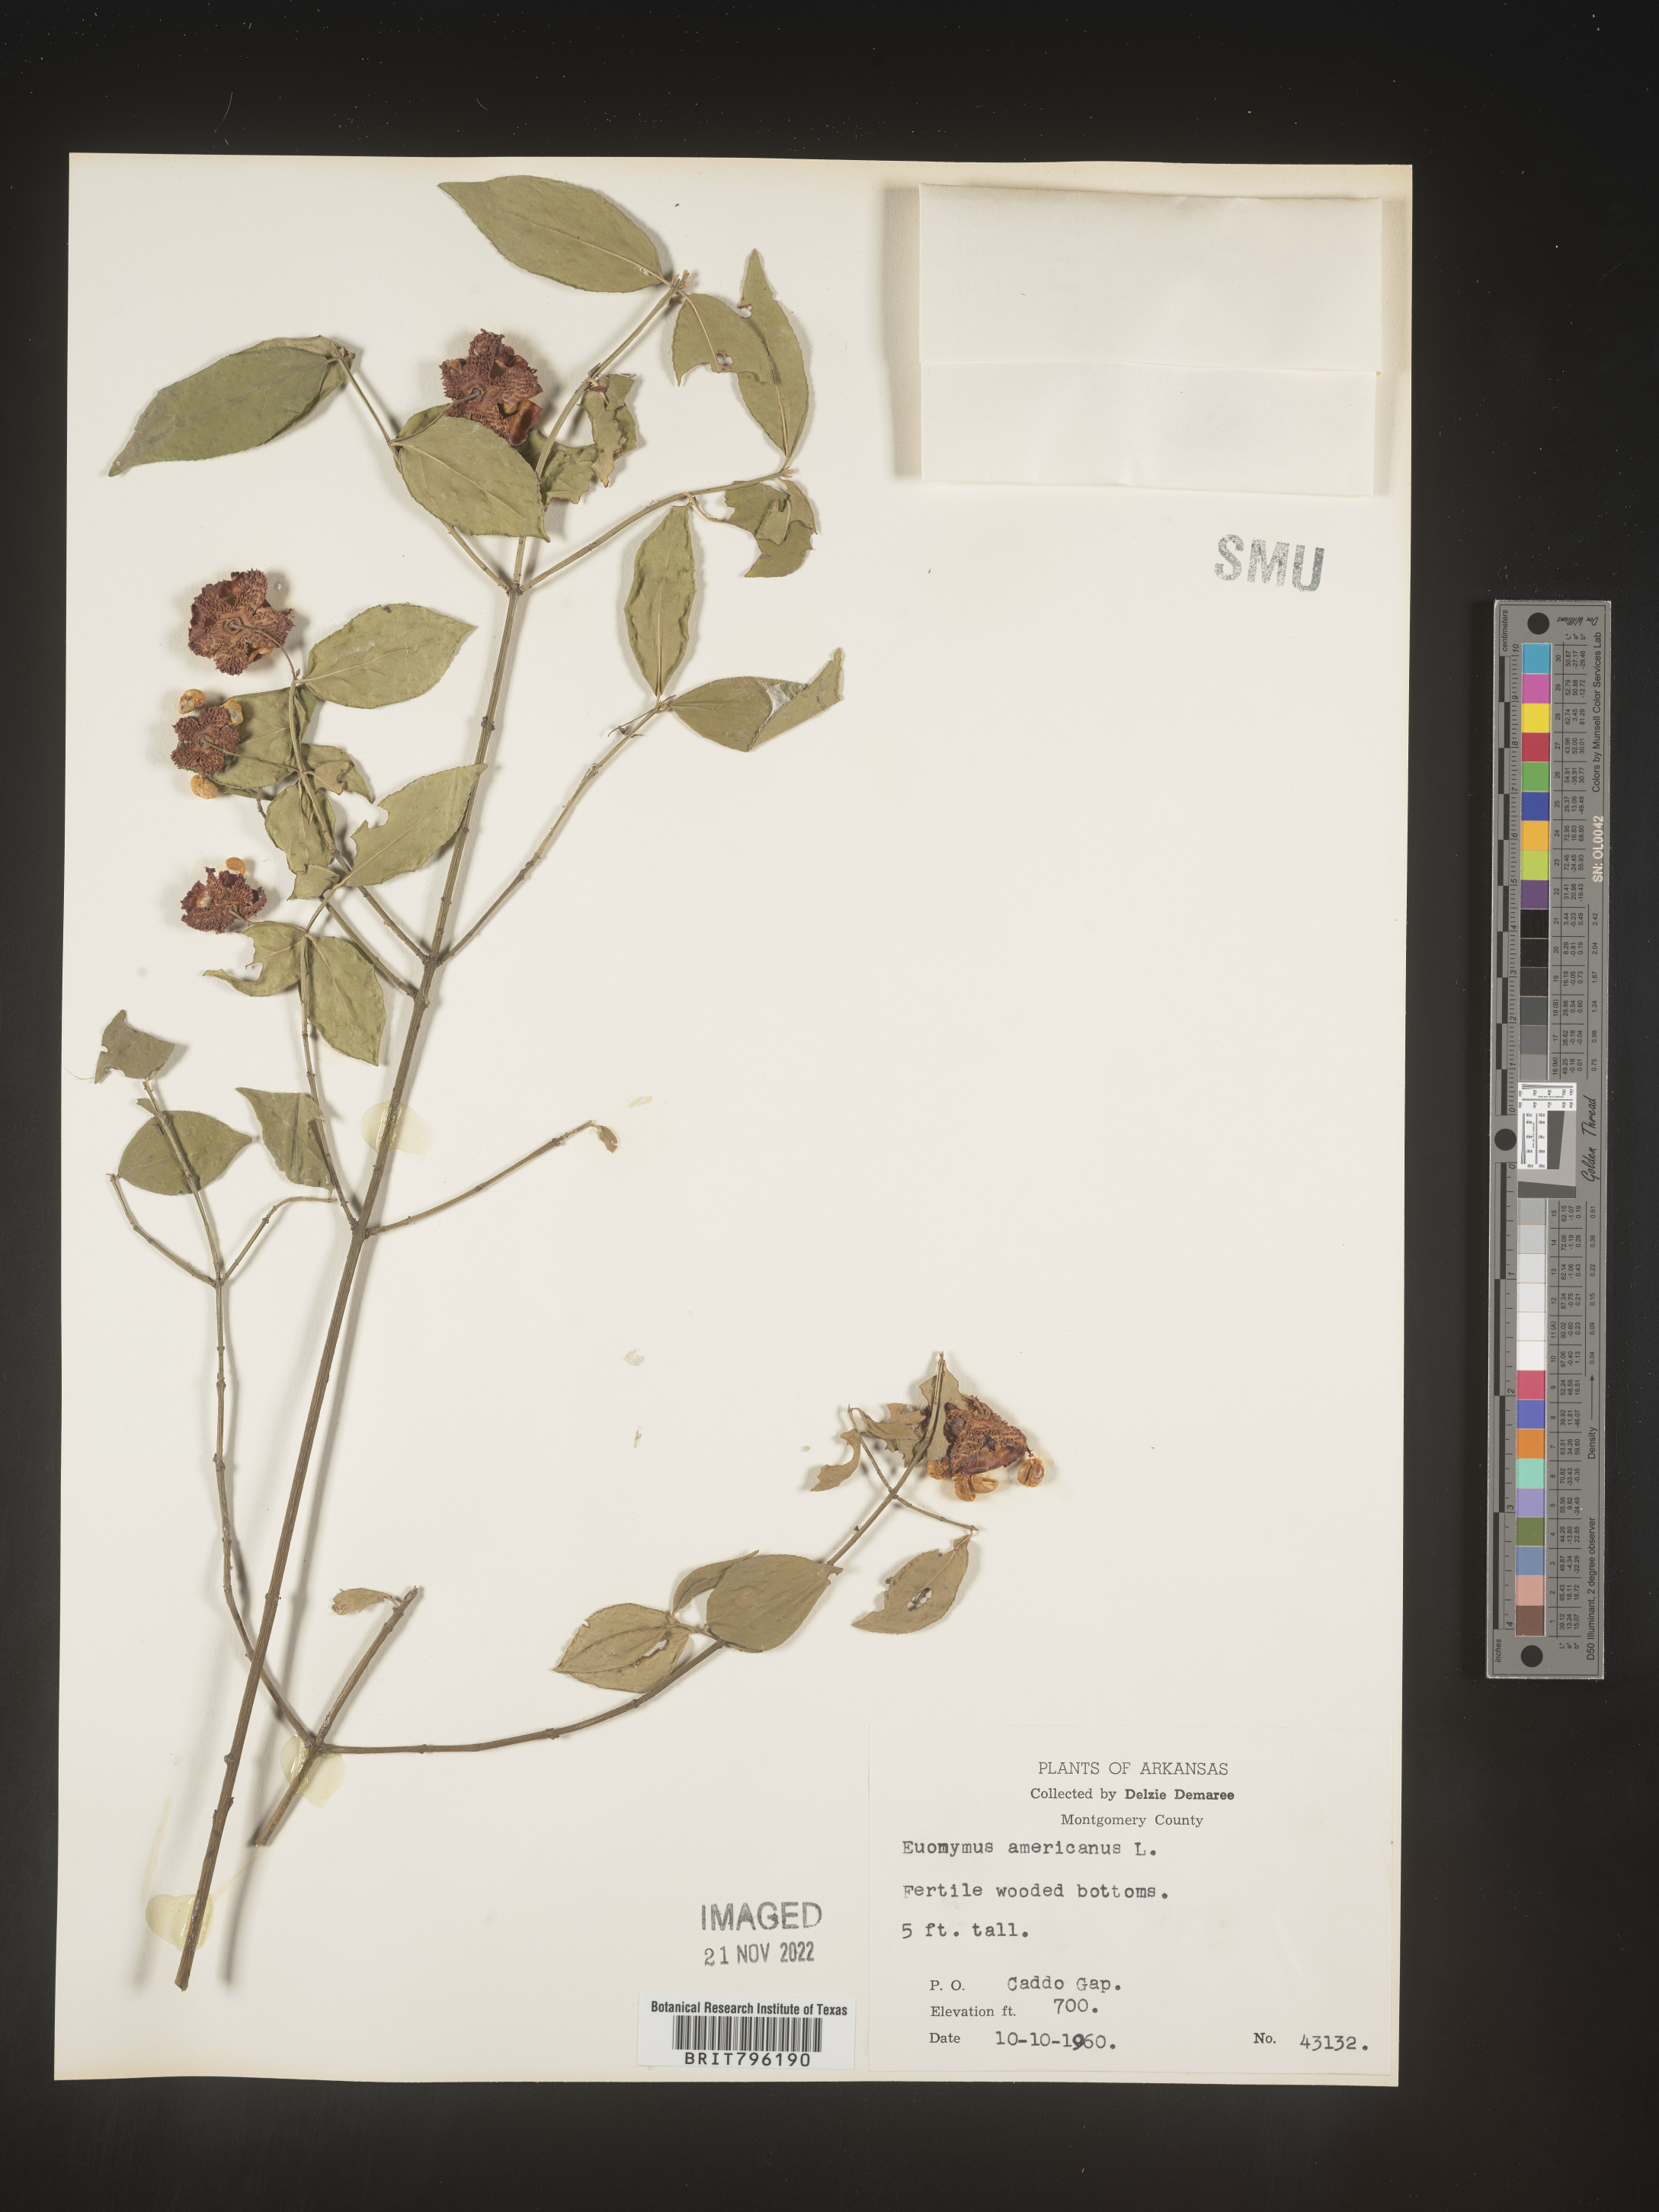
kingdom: Plantae
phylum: Tracheophyta
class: Magnoliopsida
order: Celastrales
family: Celastraceae
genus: Euonymus
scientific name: Euonymus americanus
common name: Bursting-heart
